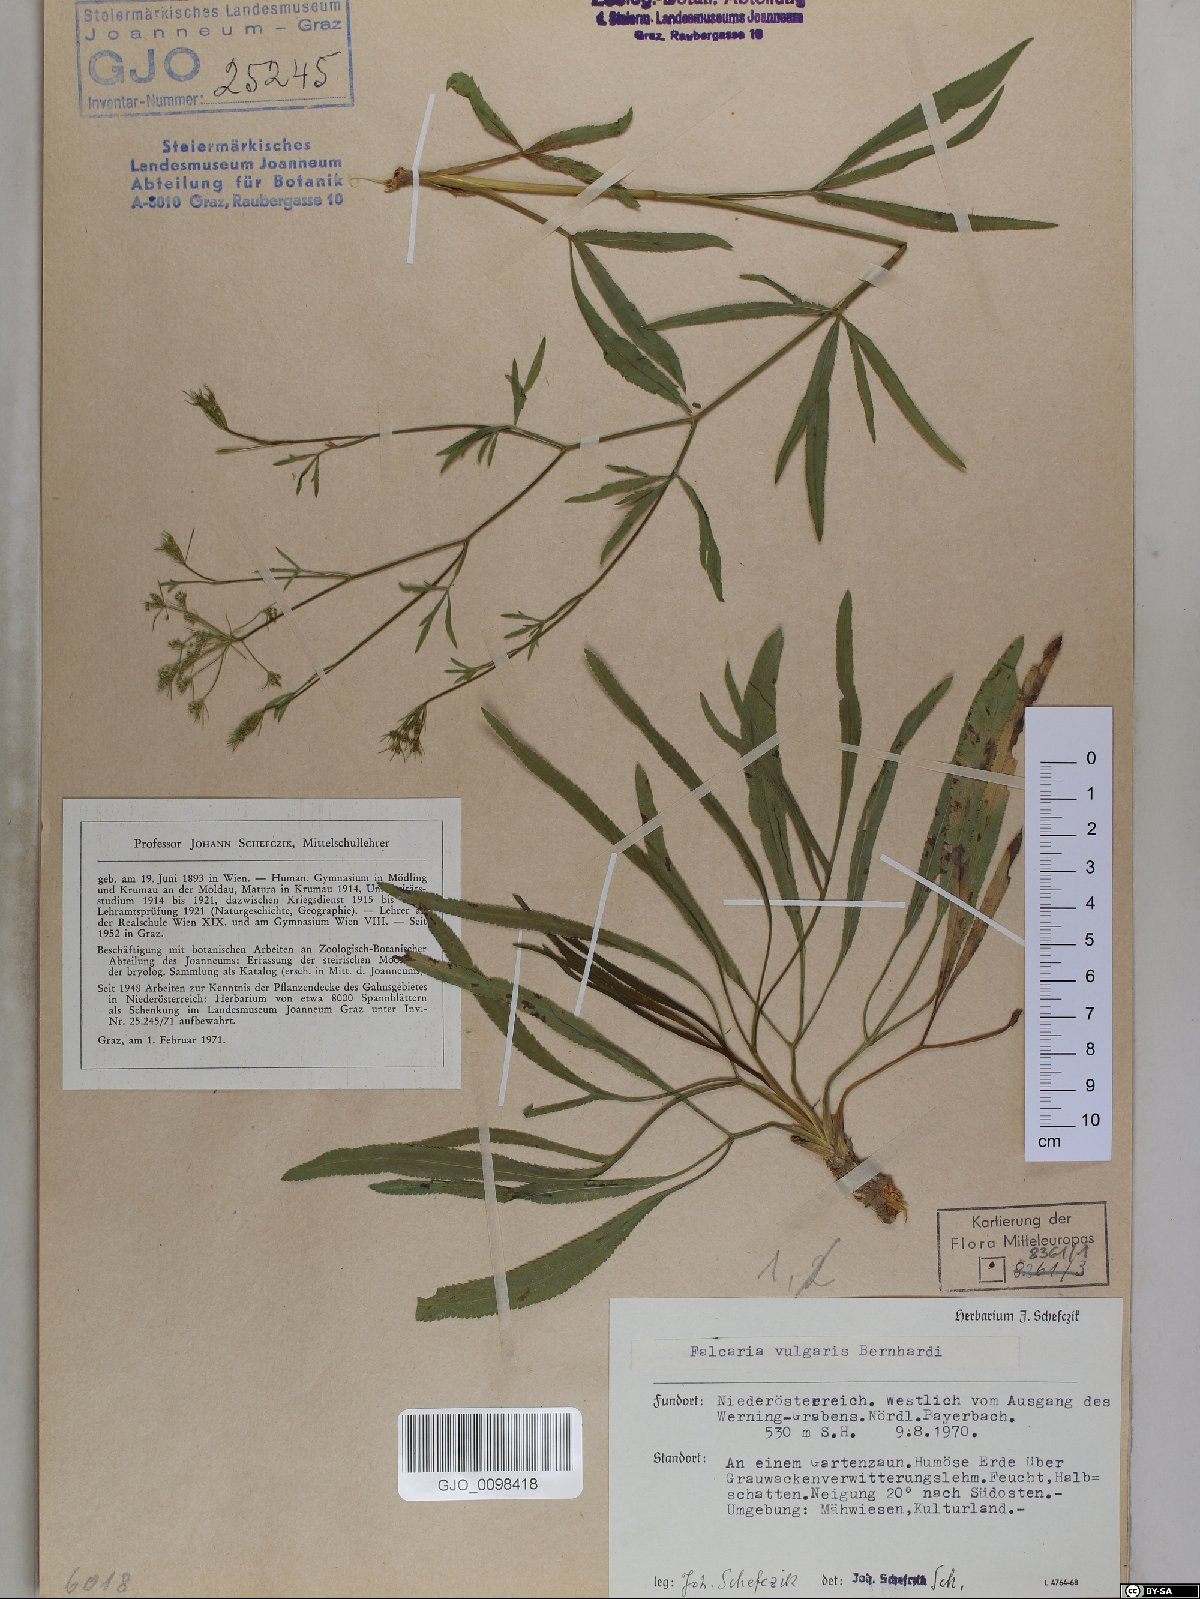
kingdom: Plantae
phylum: Tracheophyta
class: Magnoliopsida
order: Apiales
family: Apiaceae
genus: Falcaria
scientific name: Falcaria vulgaris
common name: Longleaf
